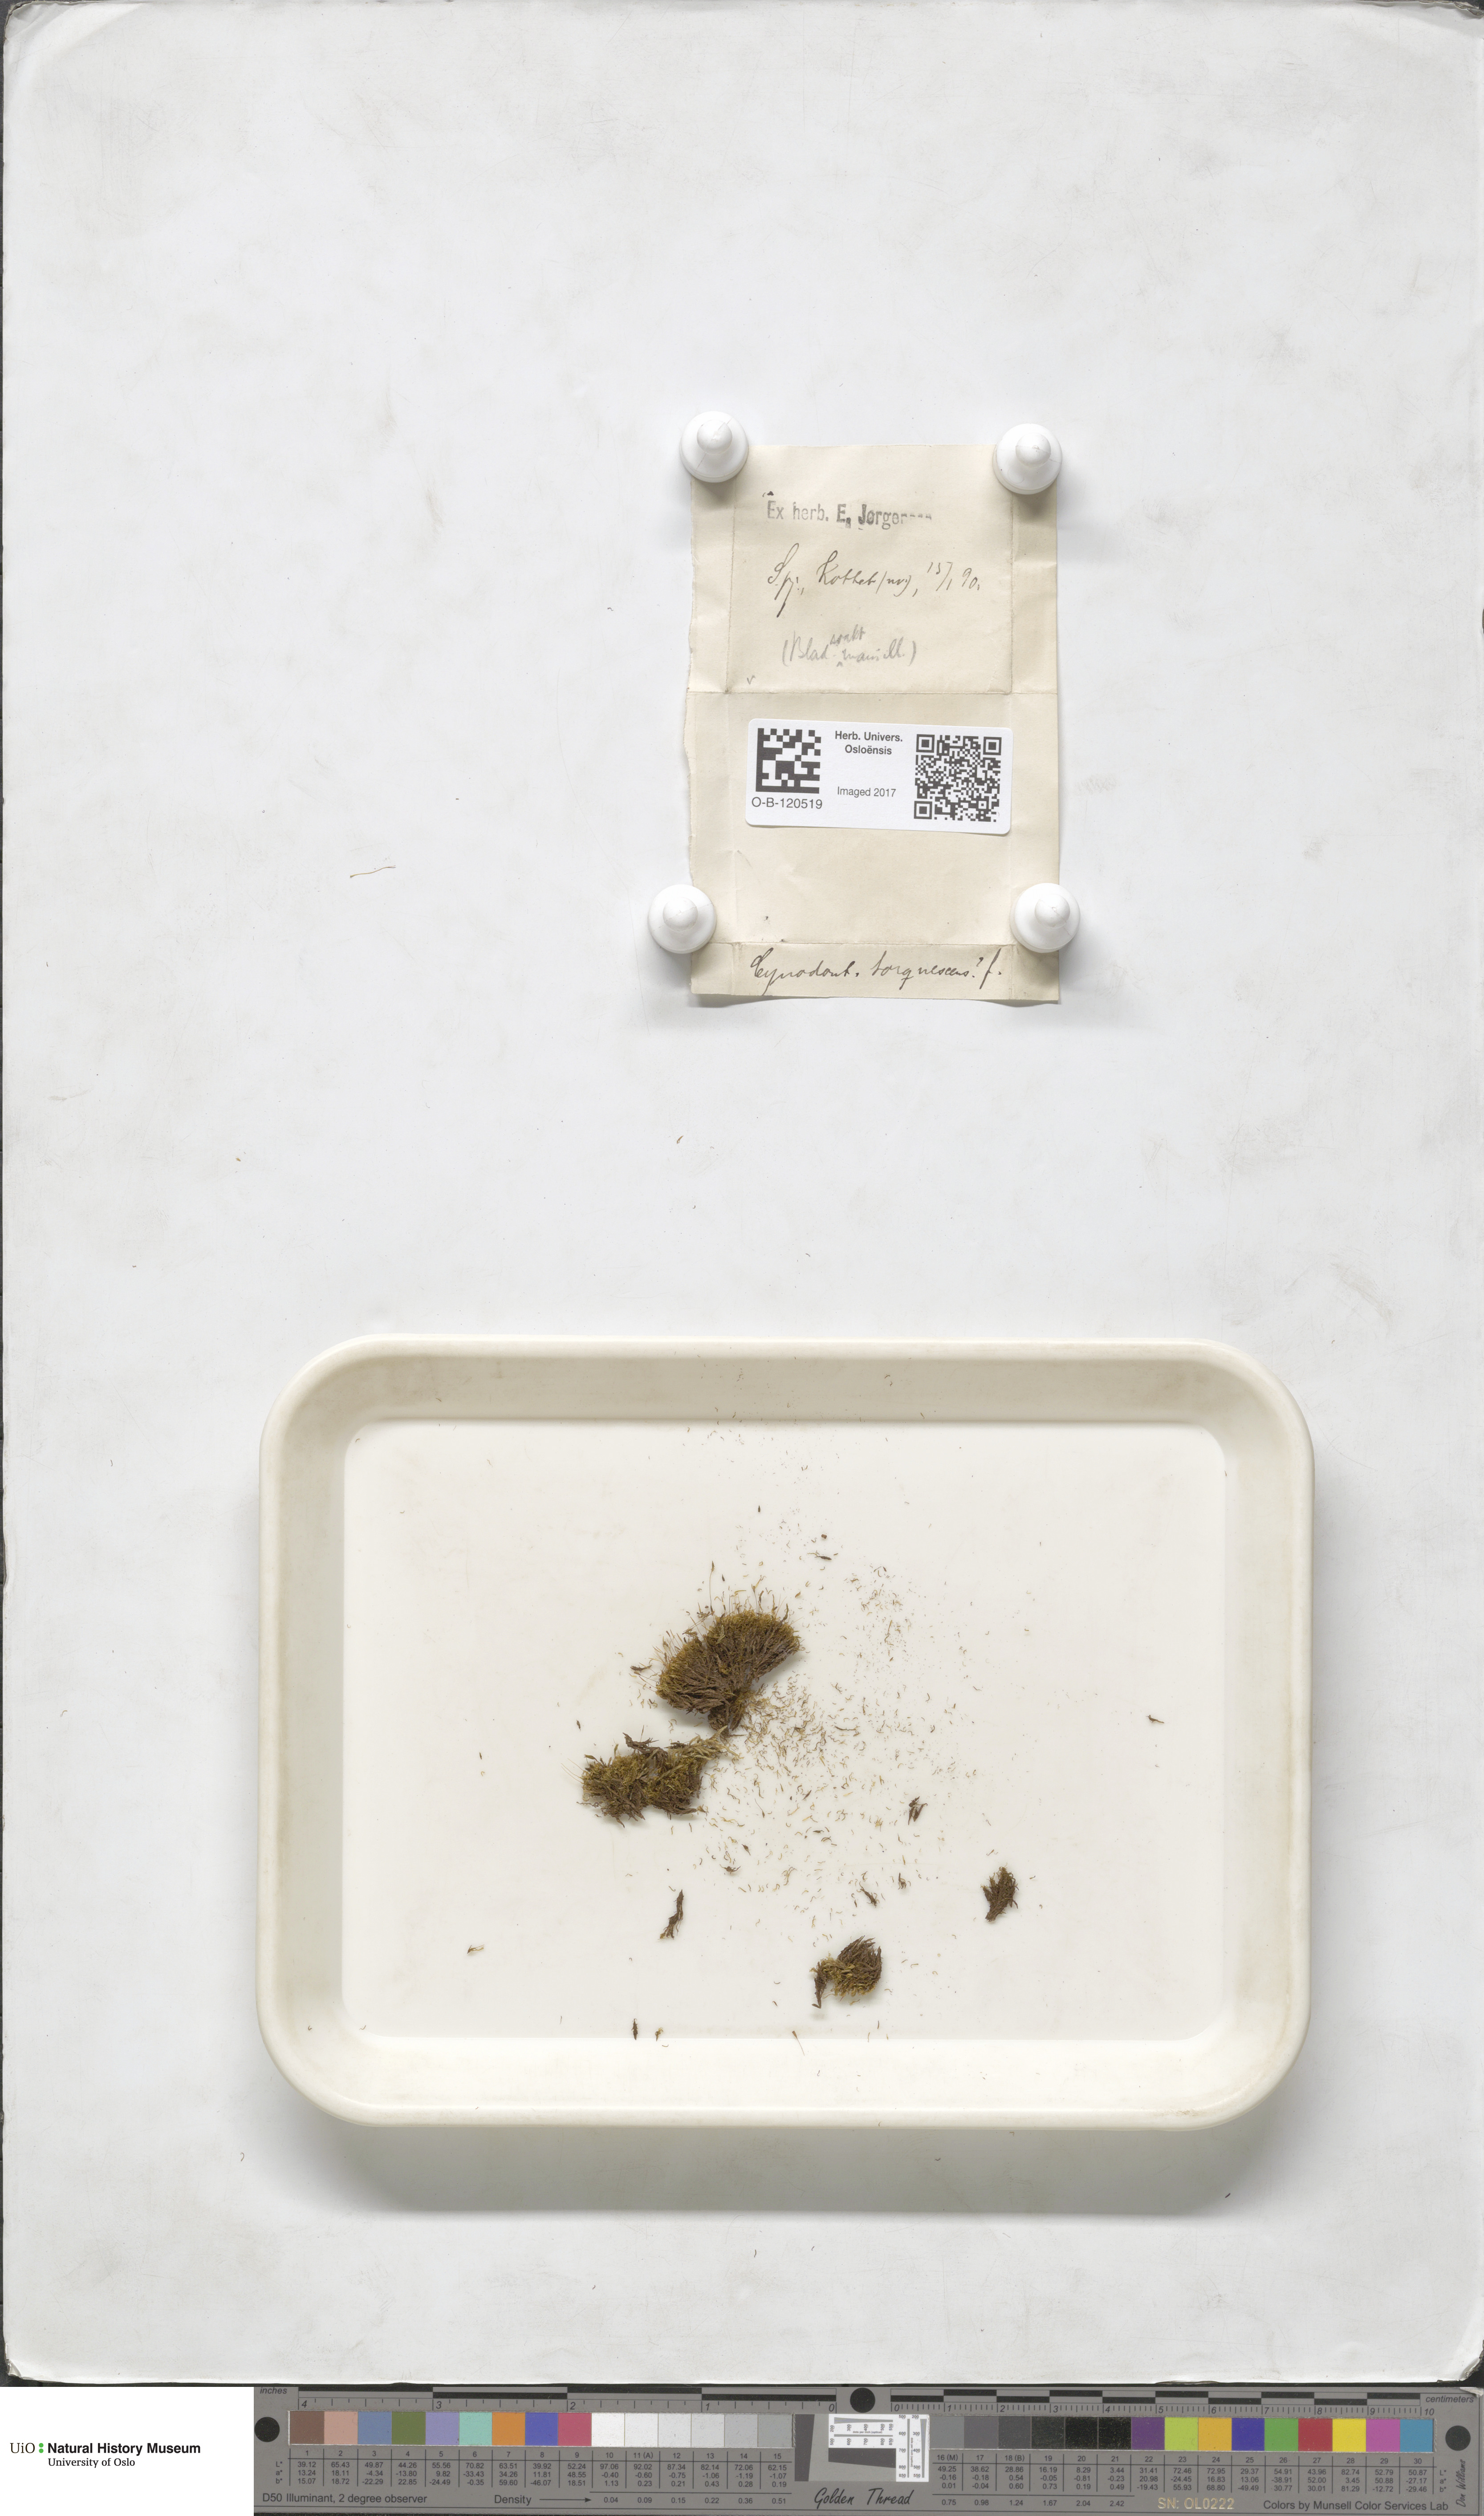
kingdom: Plantae
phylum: Bryophyta
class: Bryopsida
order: Dicranales
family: Rhabdoweisiaceae
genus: Cynodontium
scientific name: Cynodontium tenellum
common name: Delicate dogtooth moss
